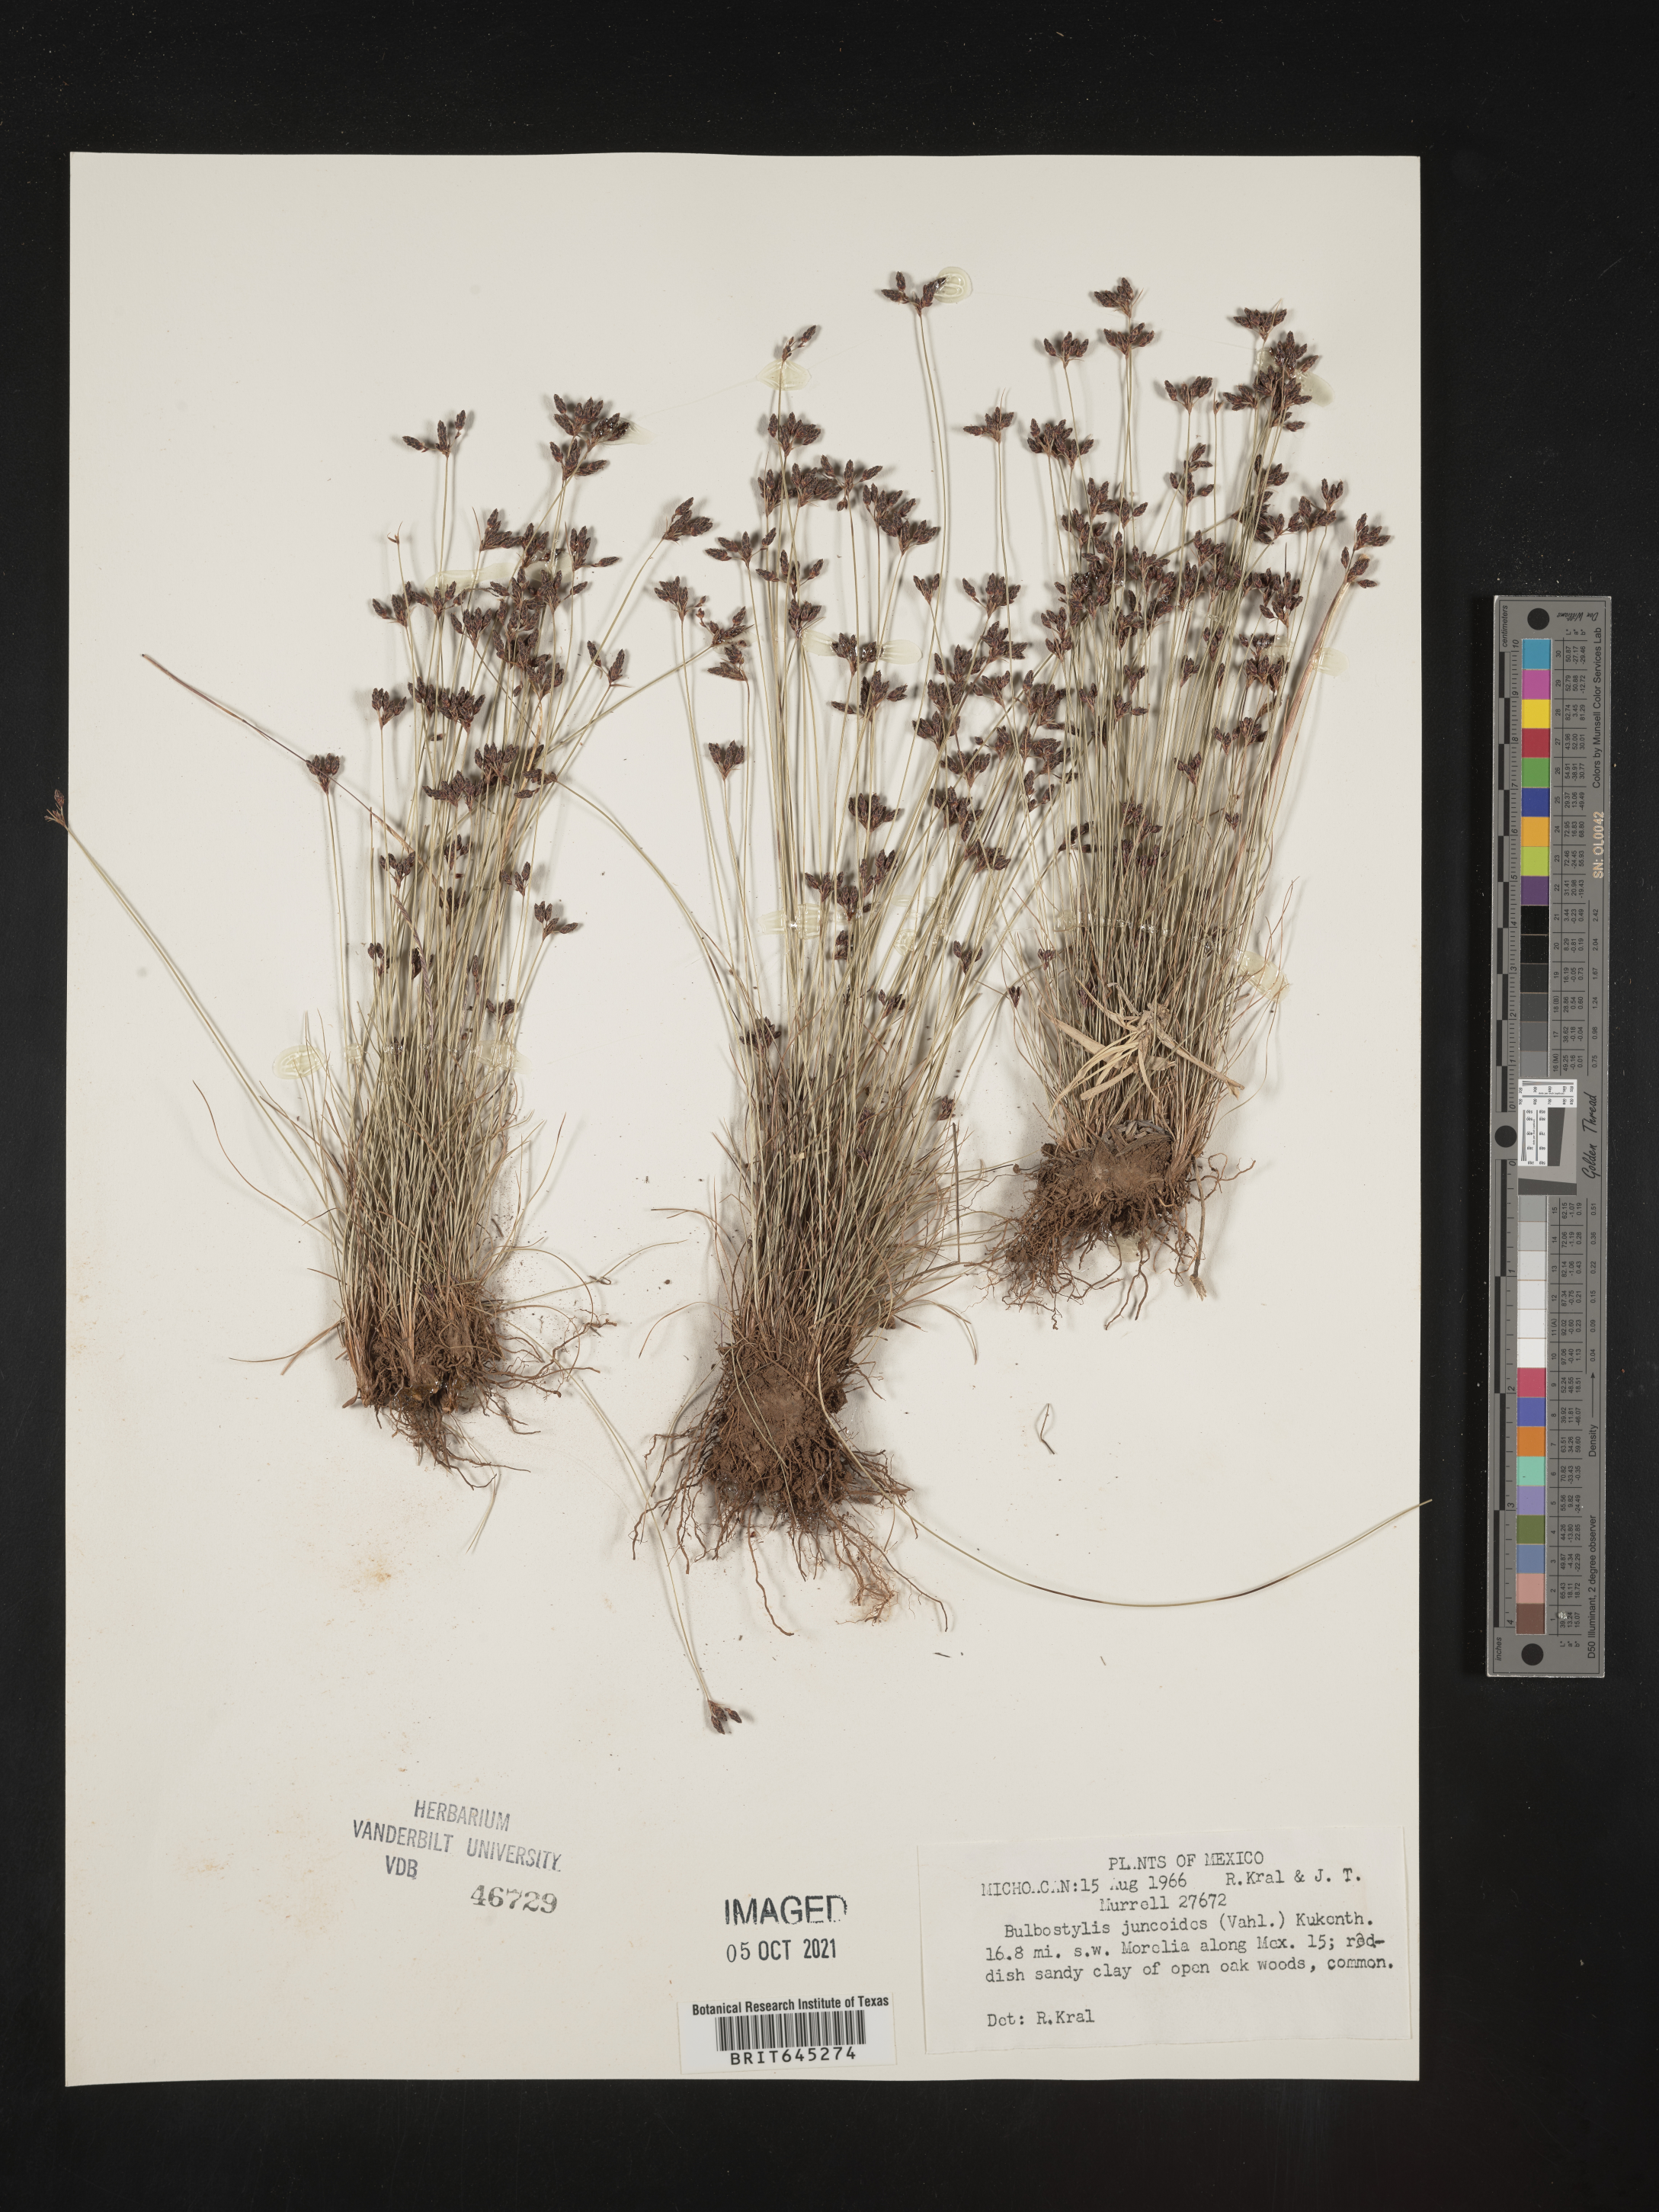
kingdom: Plantae
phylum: Tracheophyta
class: Liliopsida
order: Poales
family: Cyperaceae
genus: Bulbostylis
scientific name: Bulbostylis juncoides
